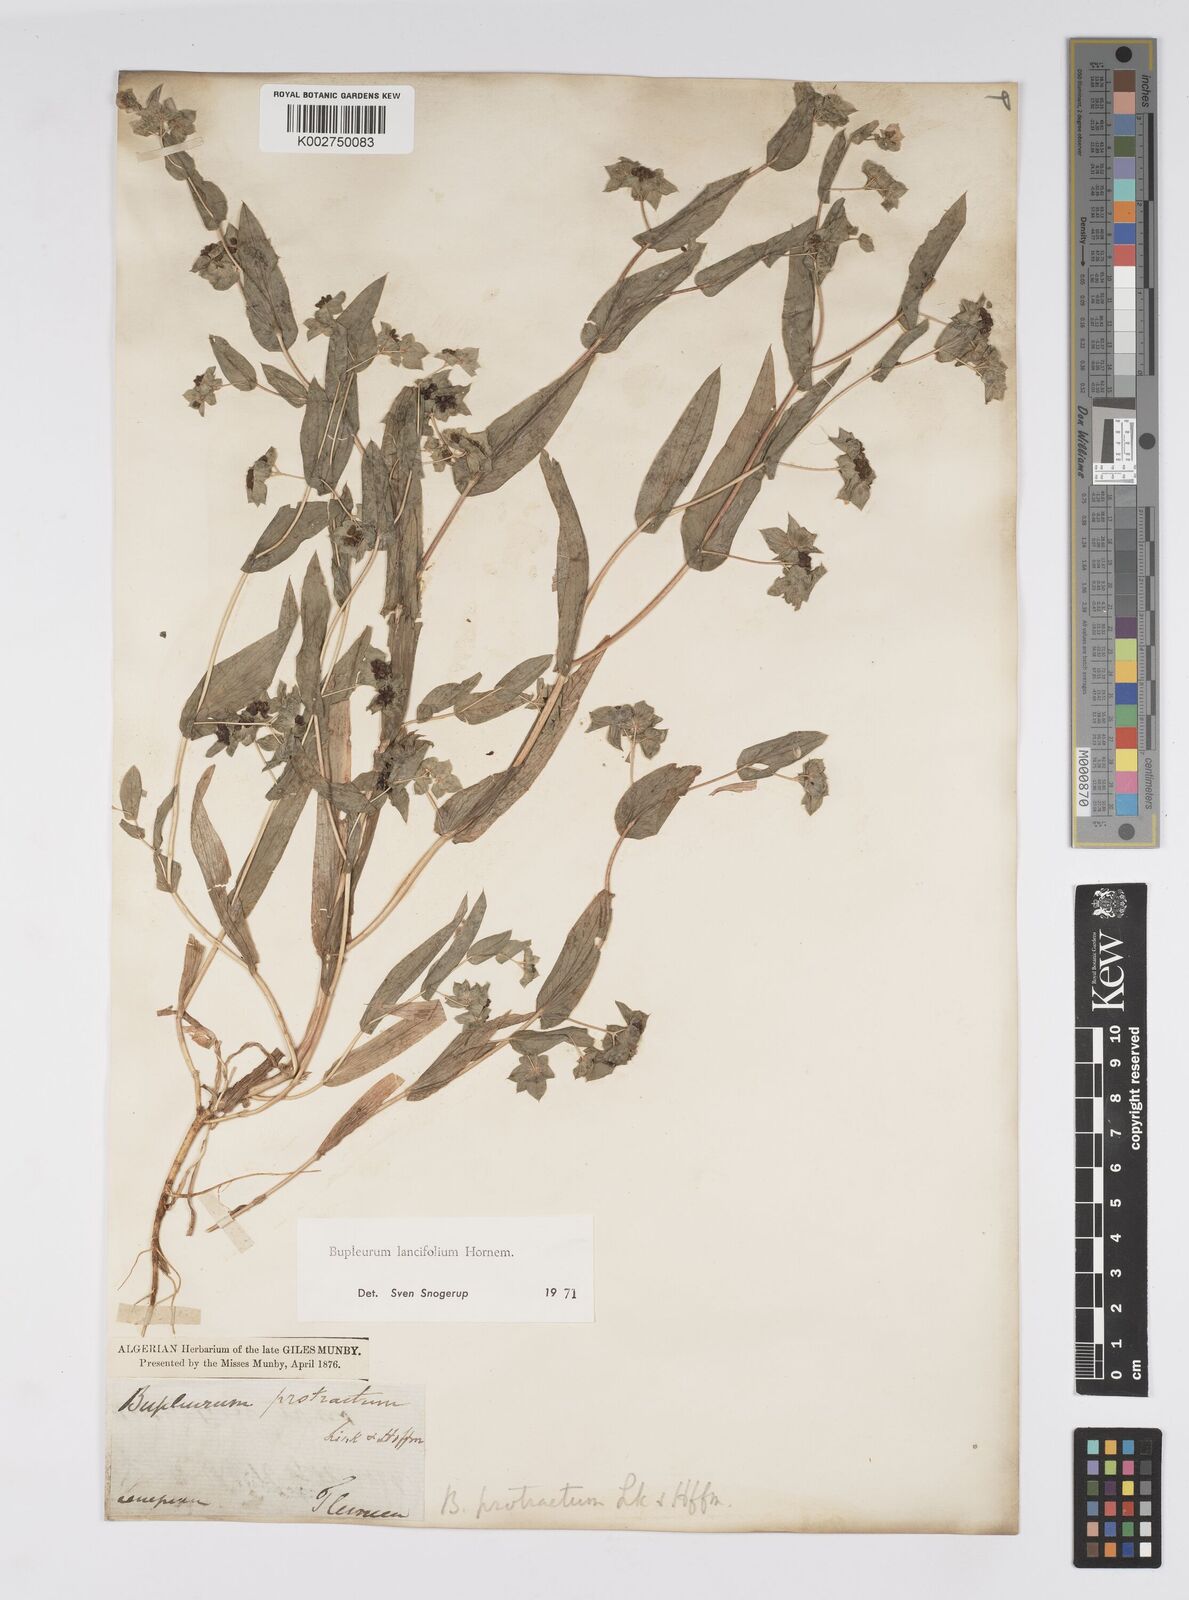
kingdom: Plantae
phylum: Tracheophyta
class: Magnoliopsida
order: Apiales
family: Apiaceae
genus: Bupleurum
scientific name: Bupleurum lancifolium
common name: False thorow-wax
